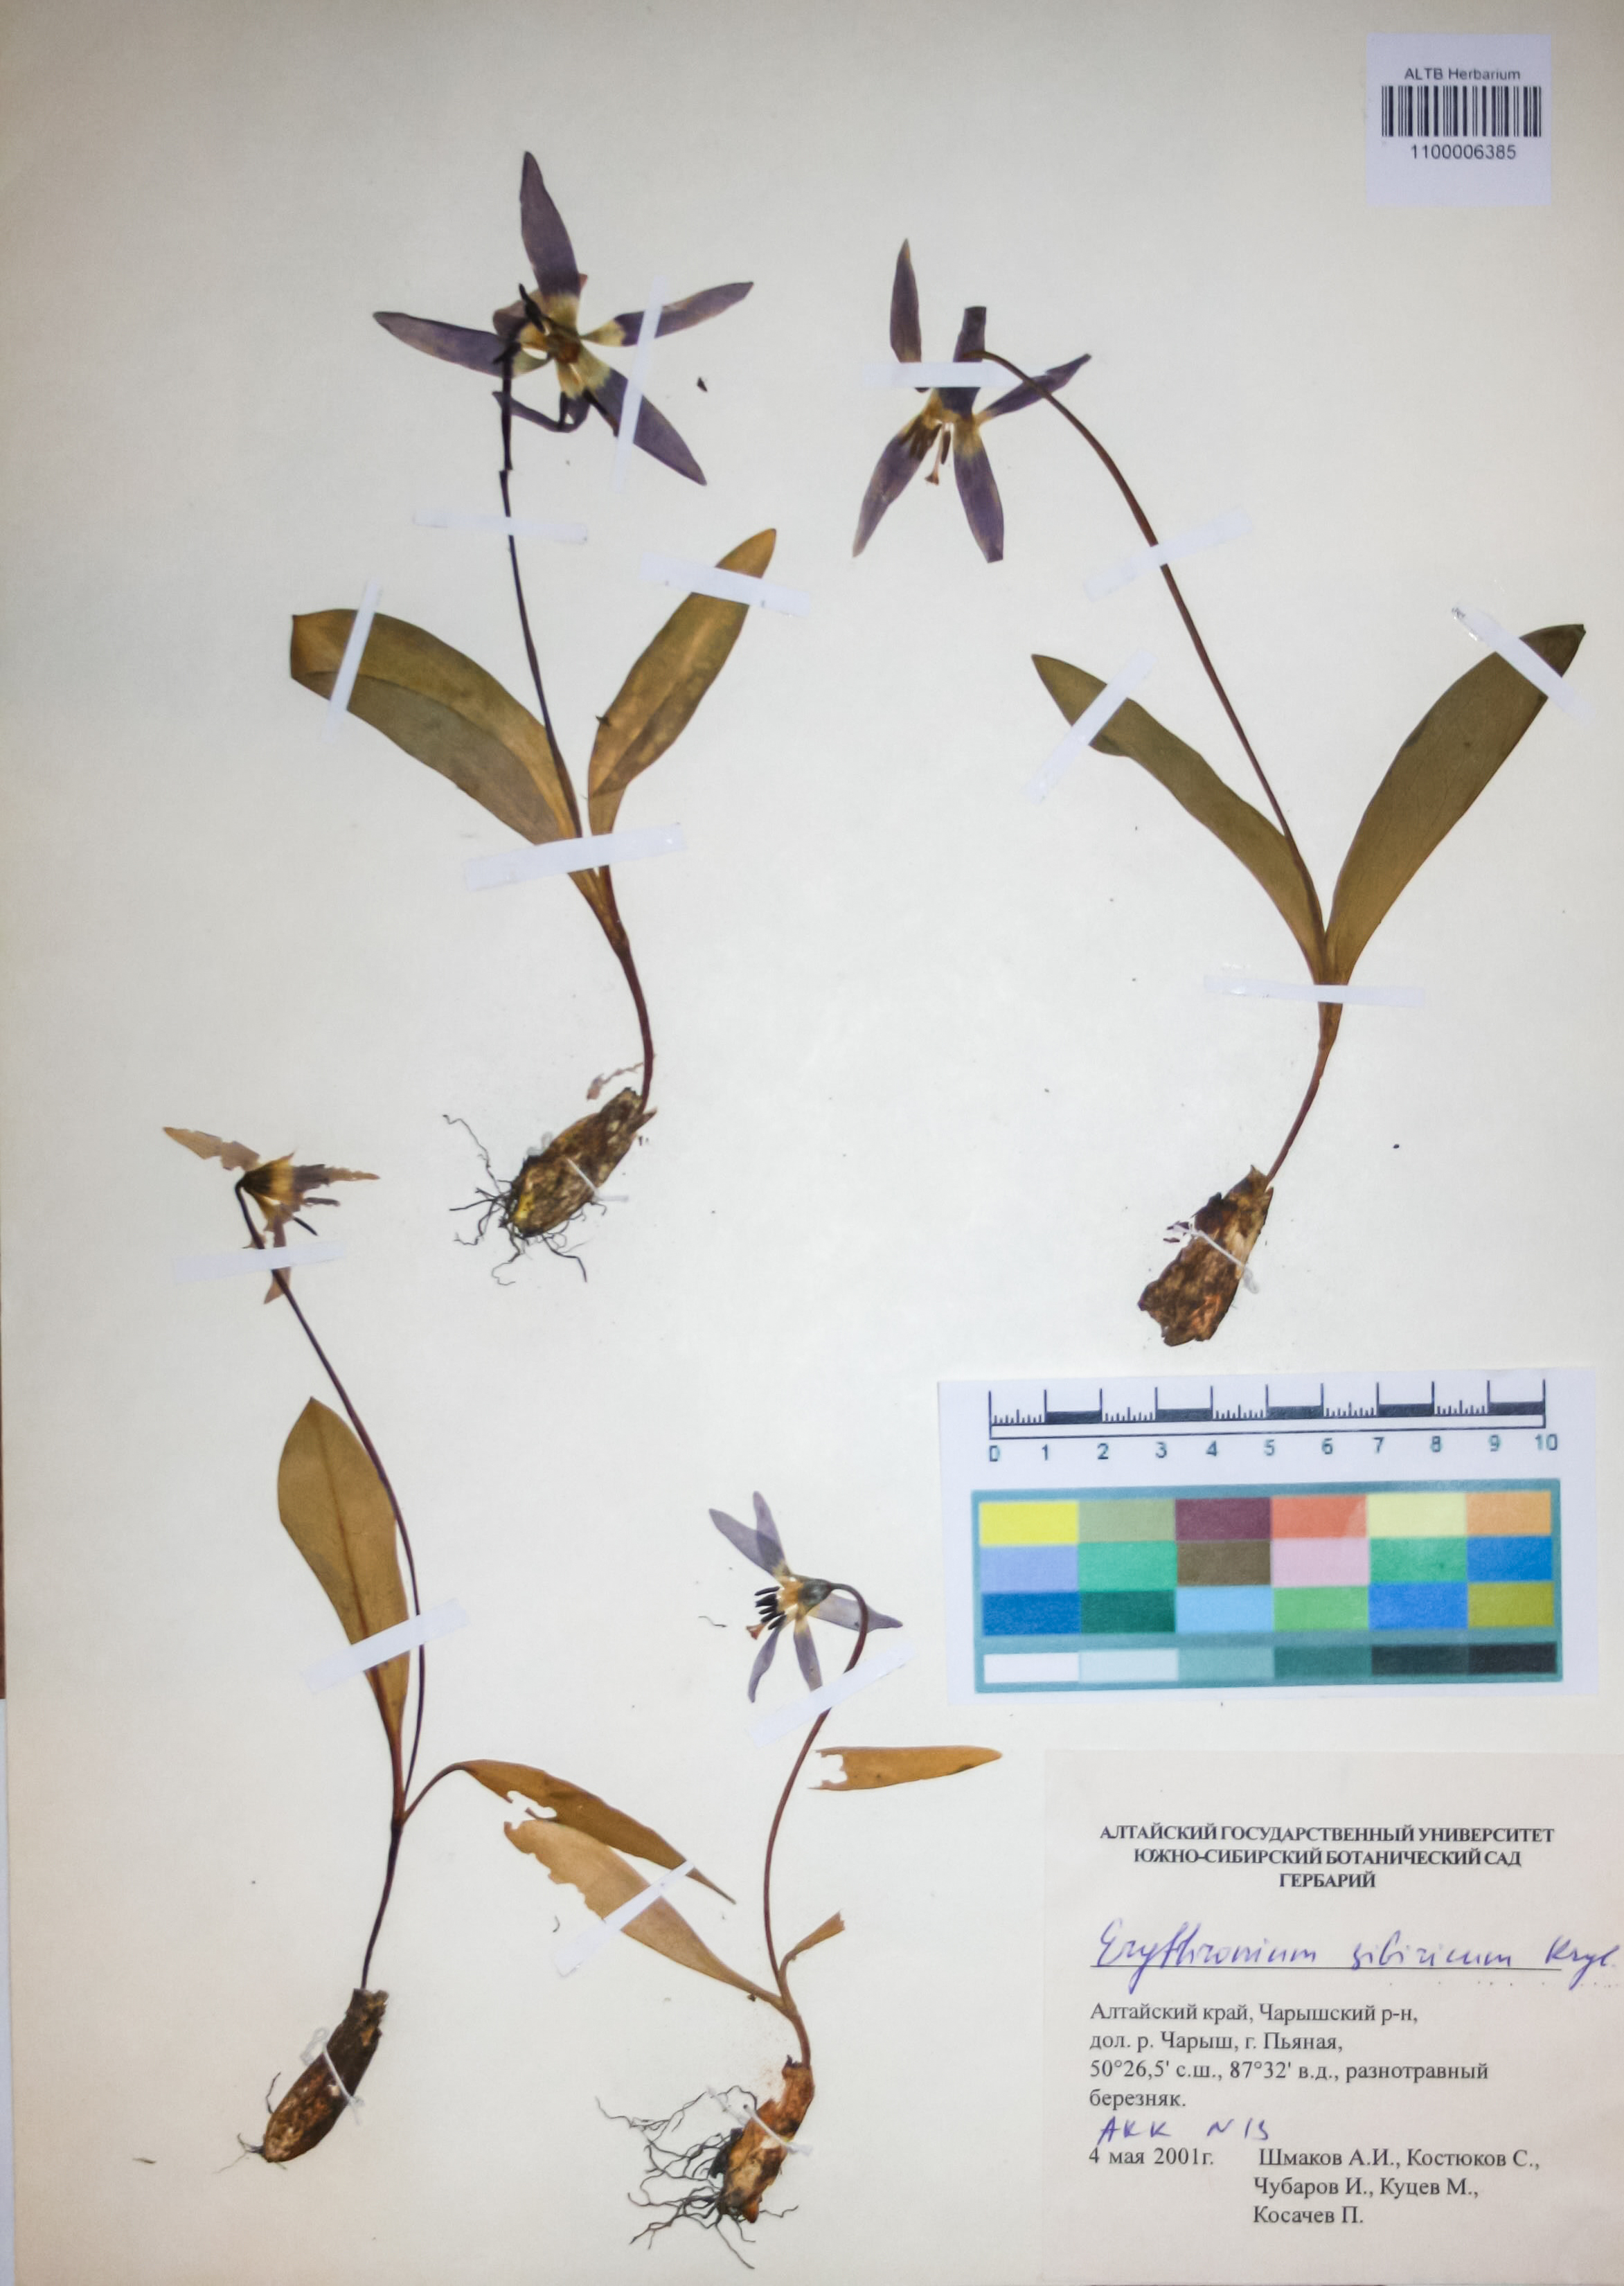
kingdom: Plantae
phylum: Tracheophyta
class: Liliopsida
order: Liliales
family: Liliaceae
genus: Erythronium
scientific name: Erythronium sibiricum
